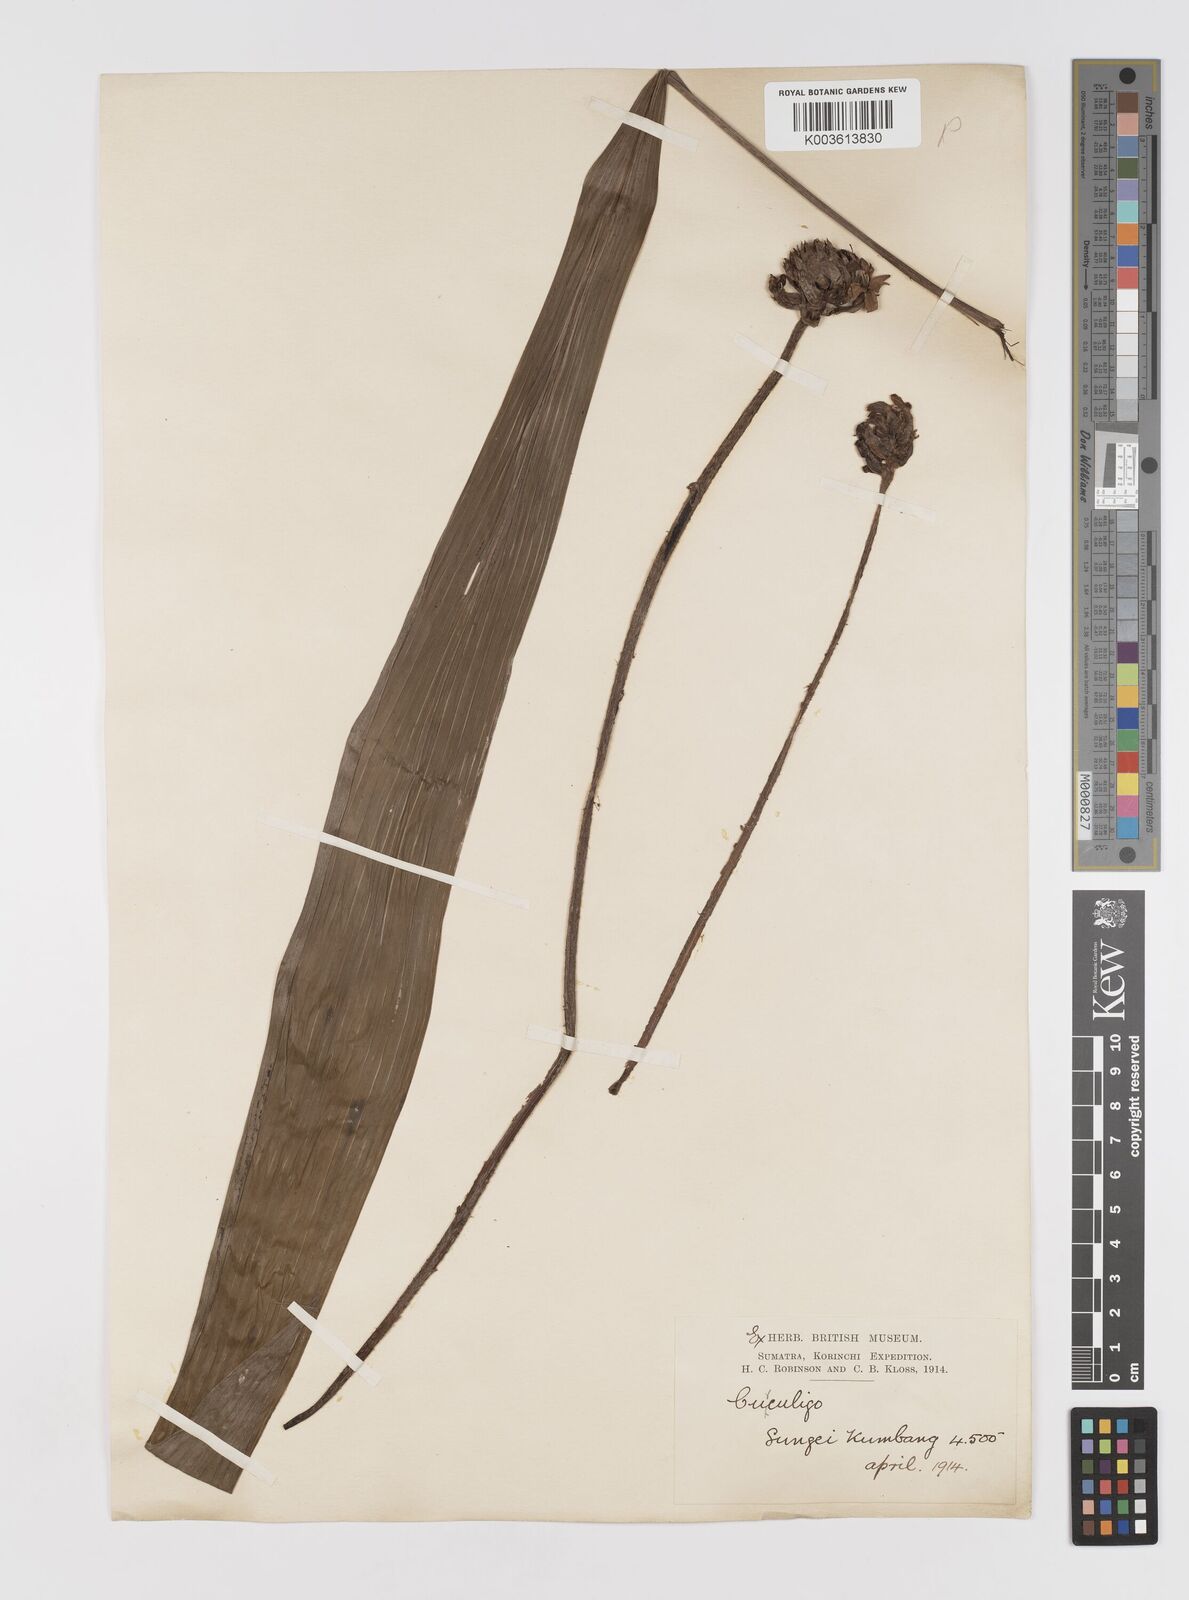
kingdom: Plantae
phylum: Tracheophyta
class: Liliopsida
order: Asparagales
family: Hypoxidaceae
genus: Curculigo
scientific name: Curculigo capitulata
